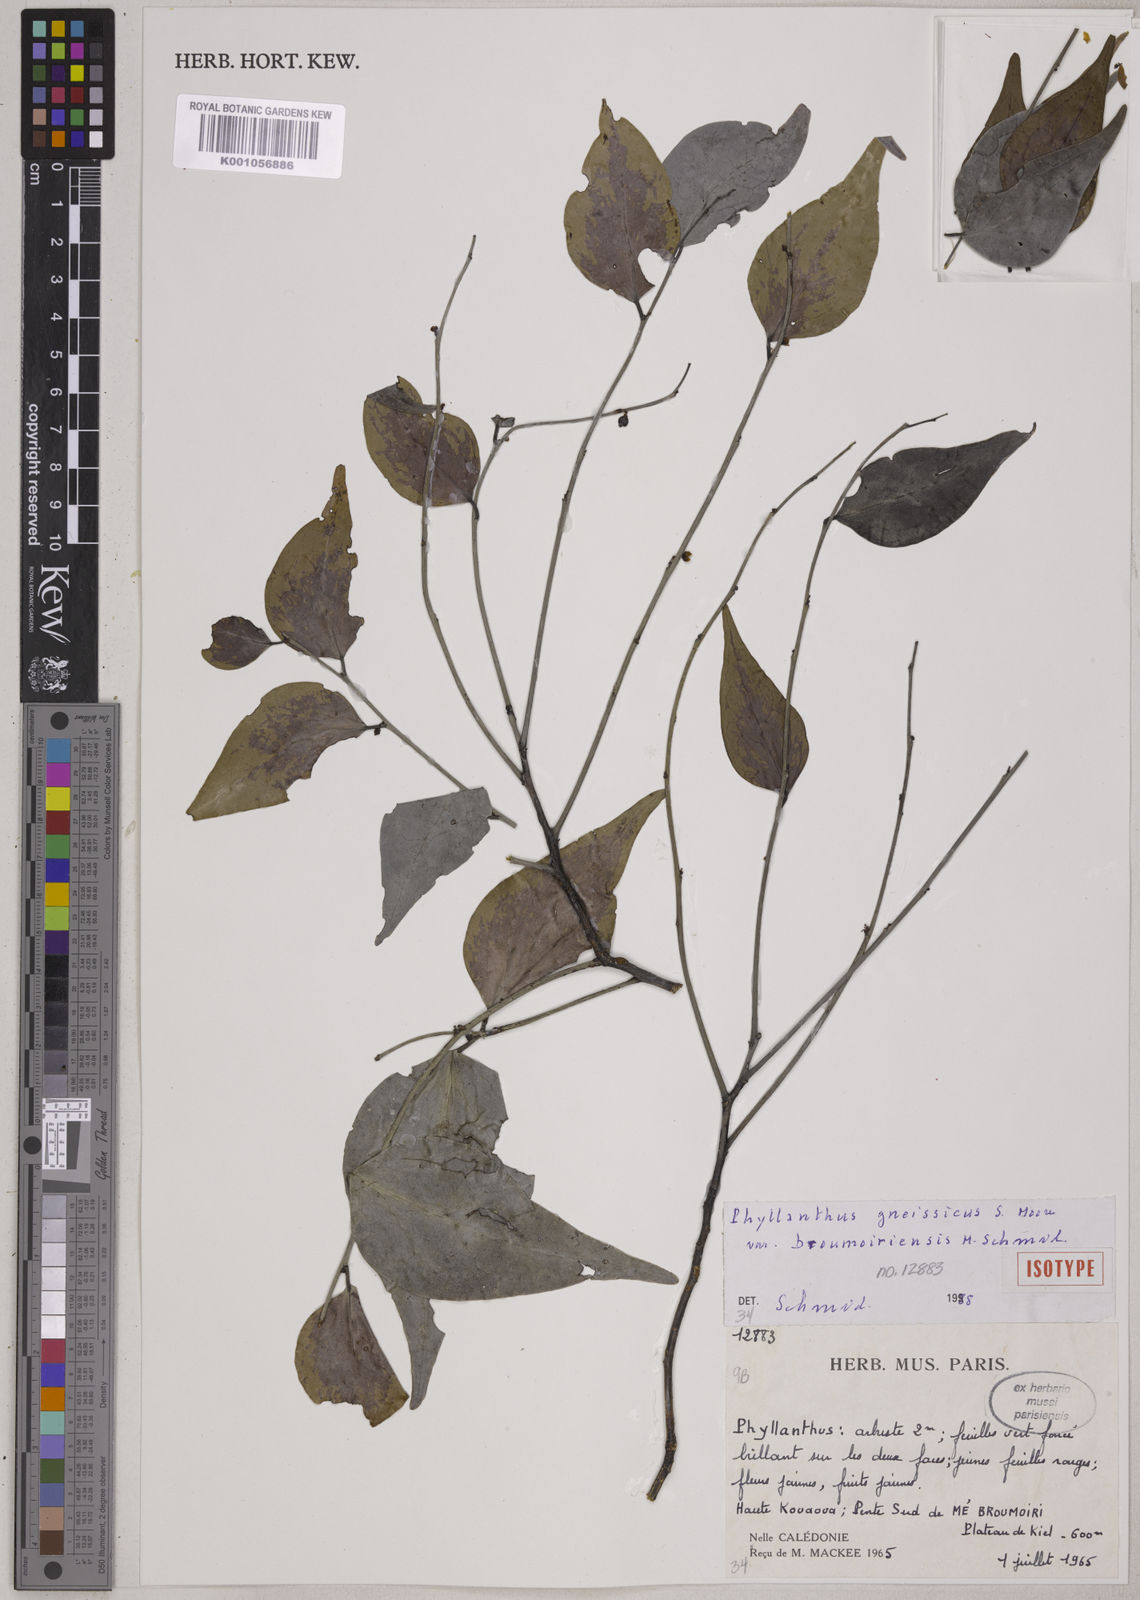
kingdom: Plantae
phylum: Tracheophyta
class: Magnoliopsida
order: Malpighiales
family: Phyllanthaceae
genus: Phyllanthus
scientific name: Phyllanthus gneissicus
